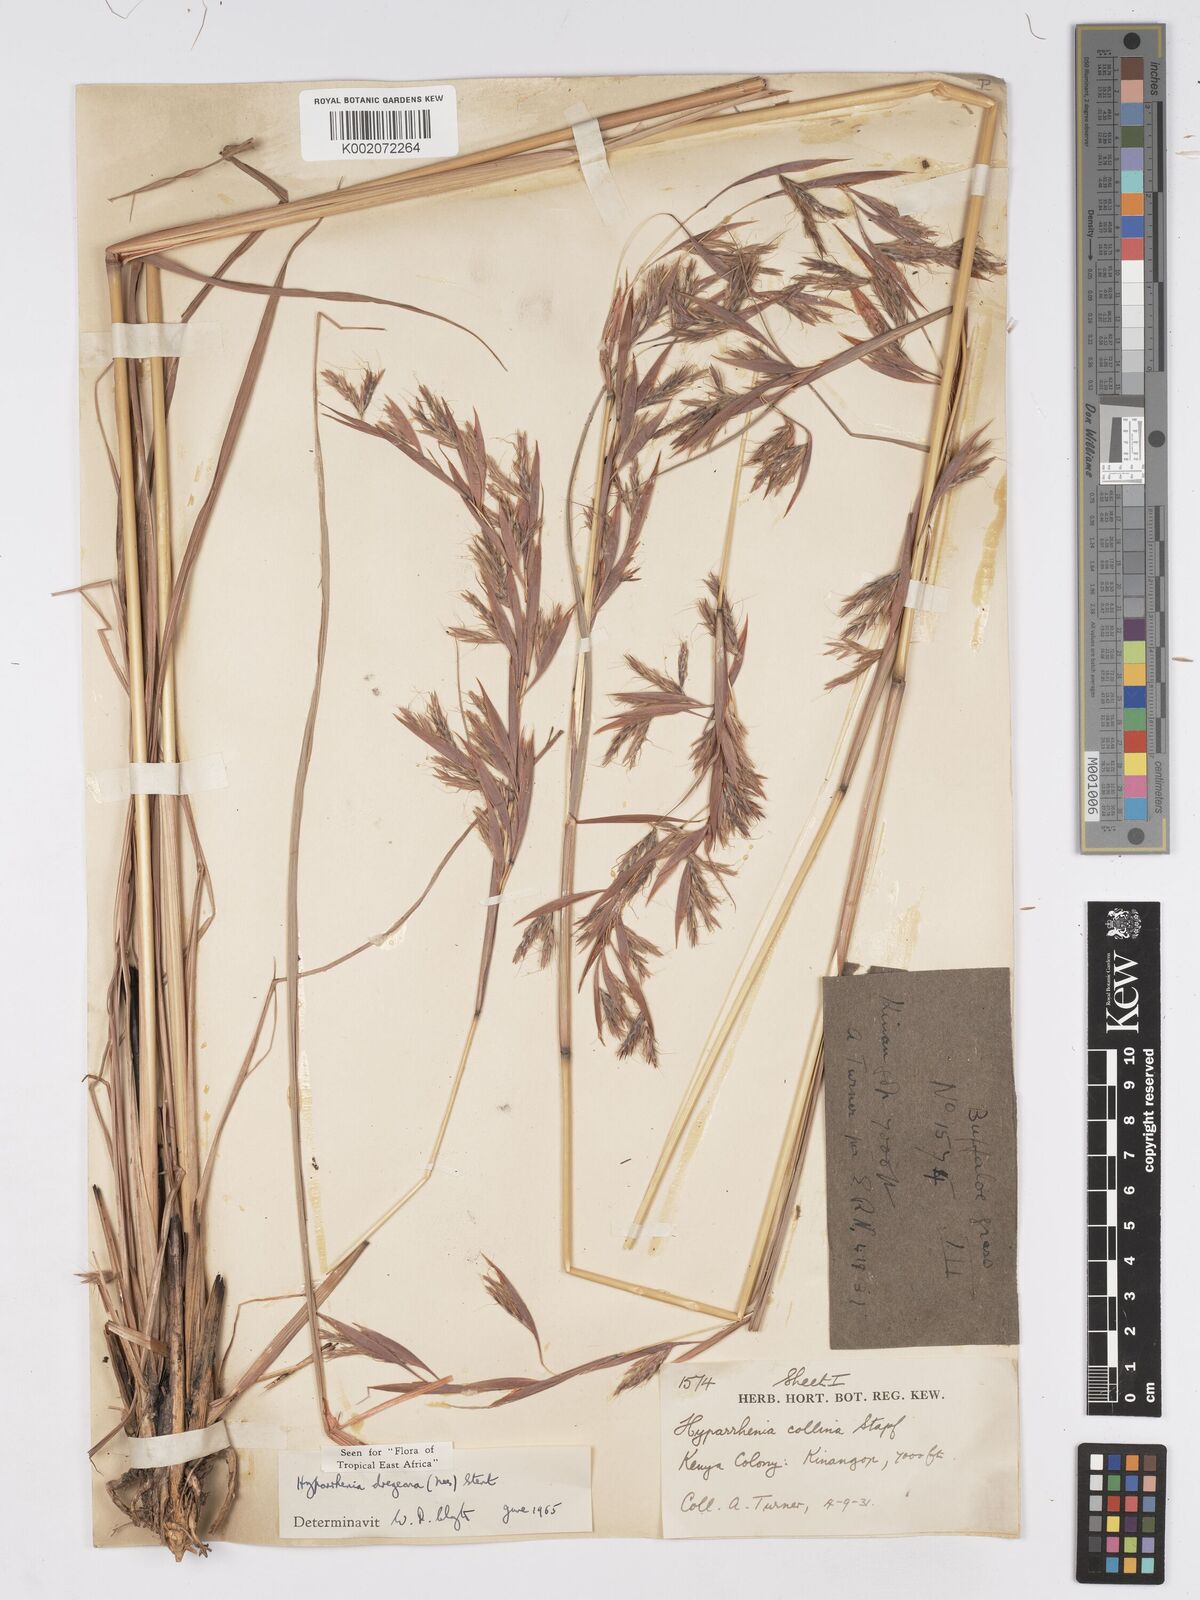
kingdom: Plantae
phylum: Tracheophyta
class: Liliopsida
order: Poales
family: Poaceae
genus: Hyparrhenia
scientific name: Hyparrhenia dregeana
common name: Silky thatching grass
